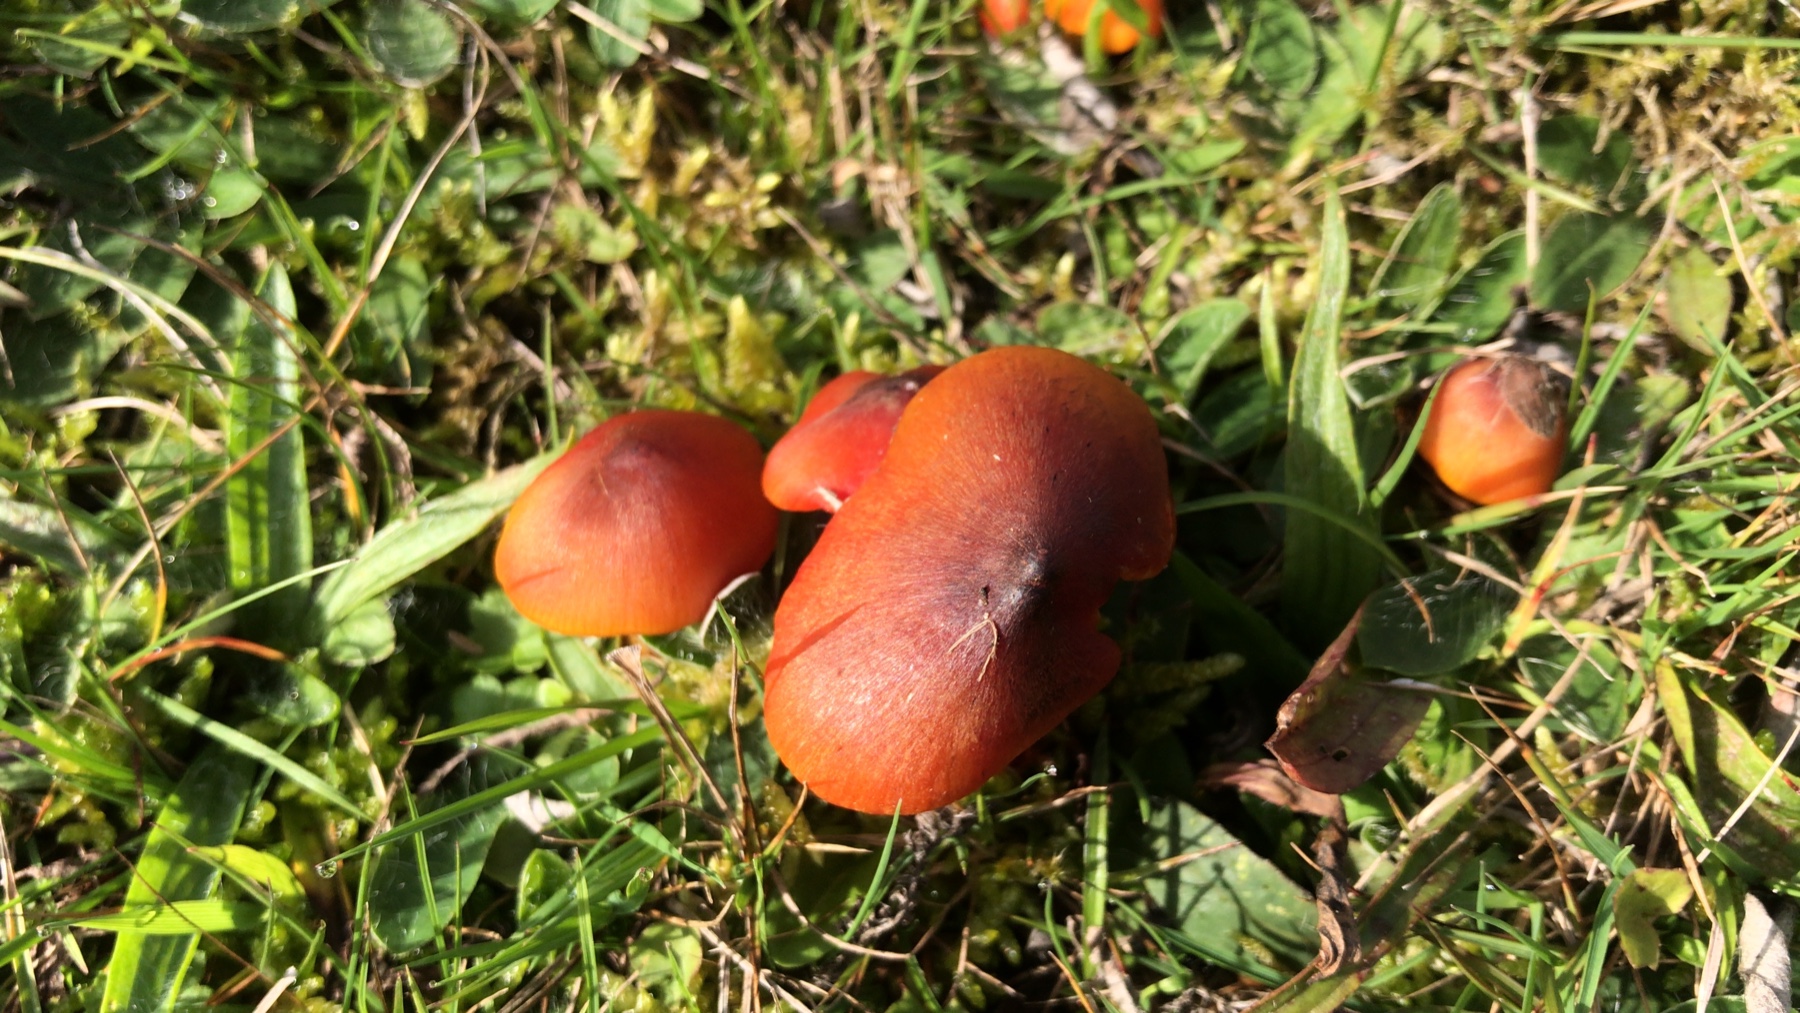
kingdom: Fungi
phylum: Basidiomycota
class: Agaricomycetes
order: Agaricales
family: Hygrophoraceae
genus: Hygrocybe
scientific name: Hygrocybe conica
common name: kegle-vokshat
